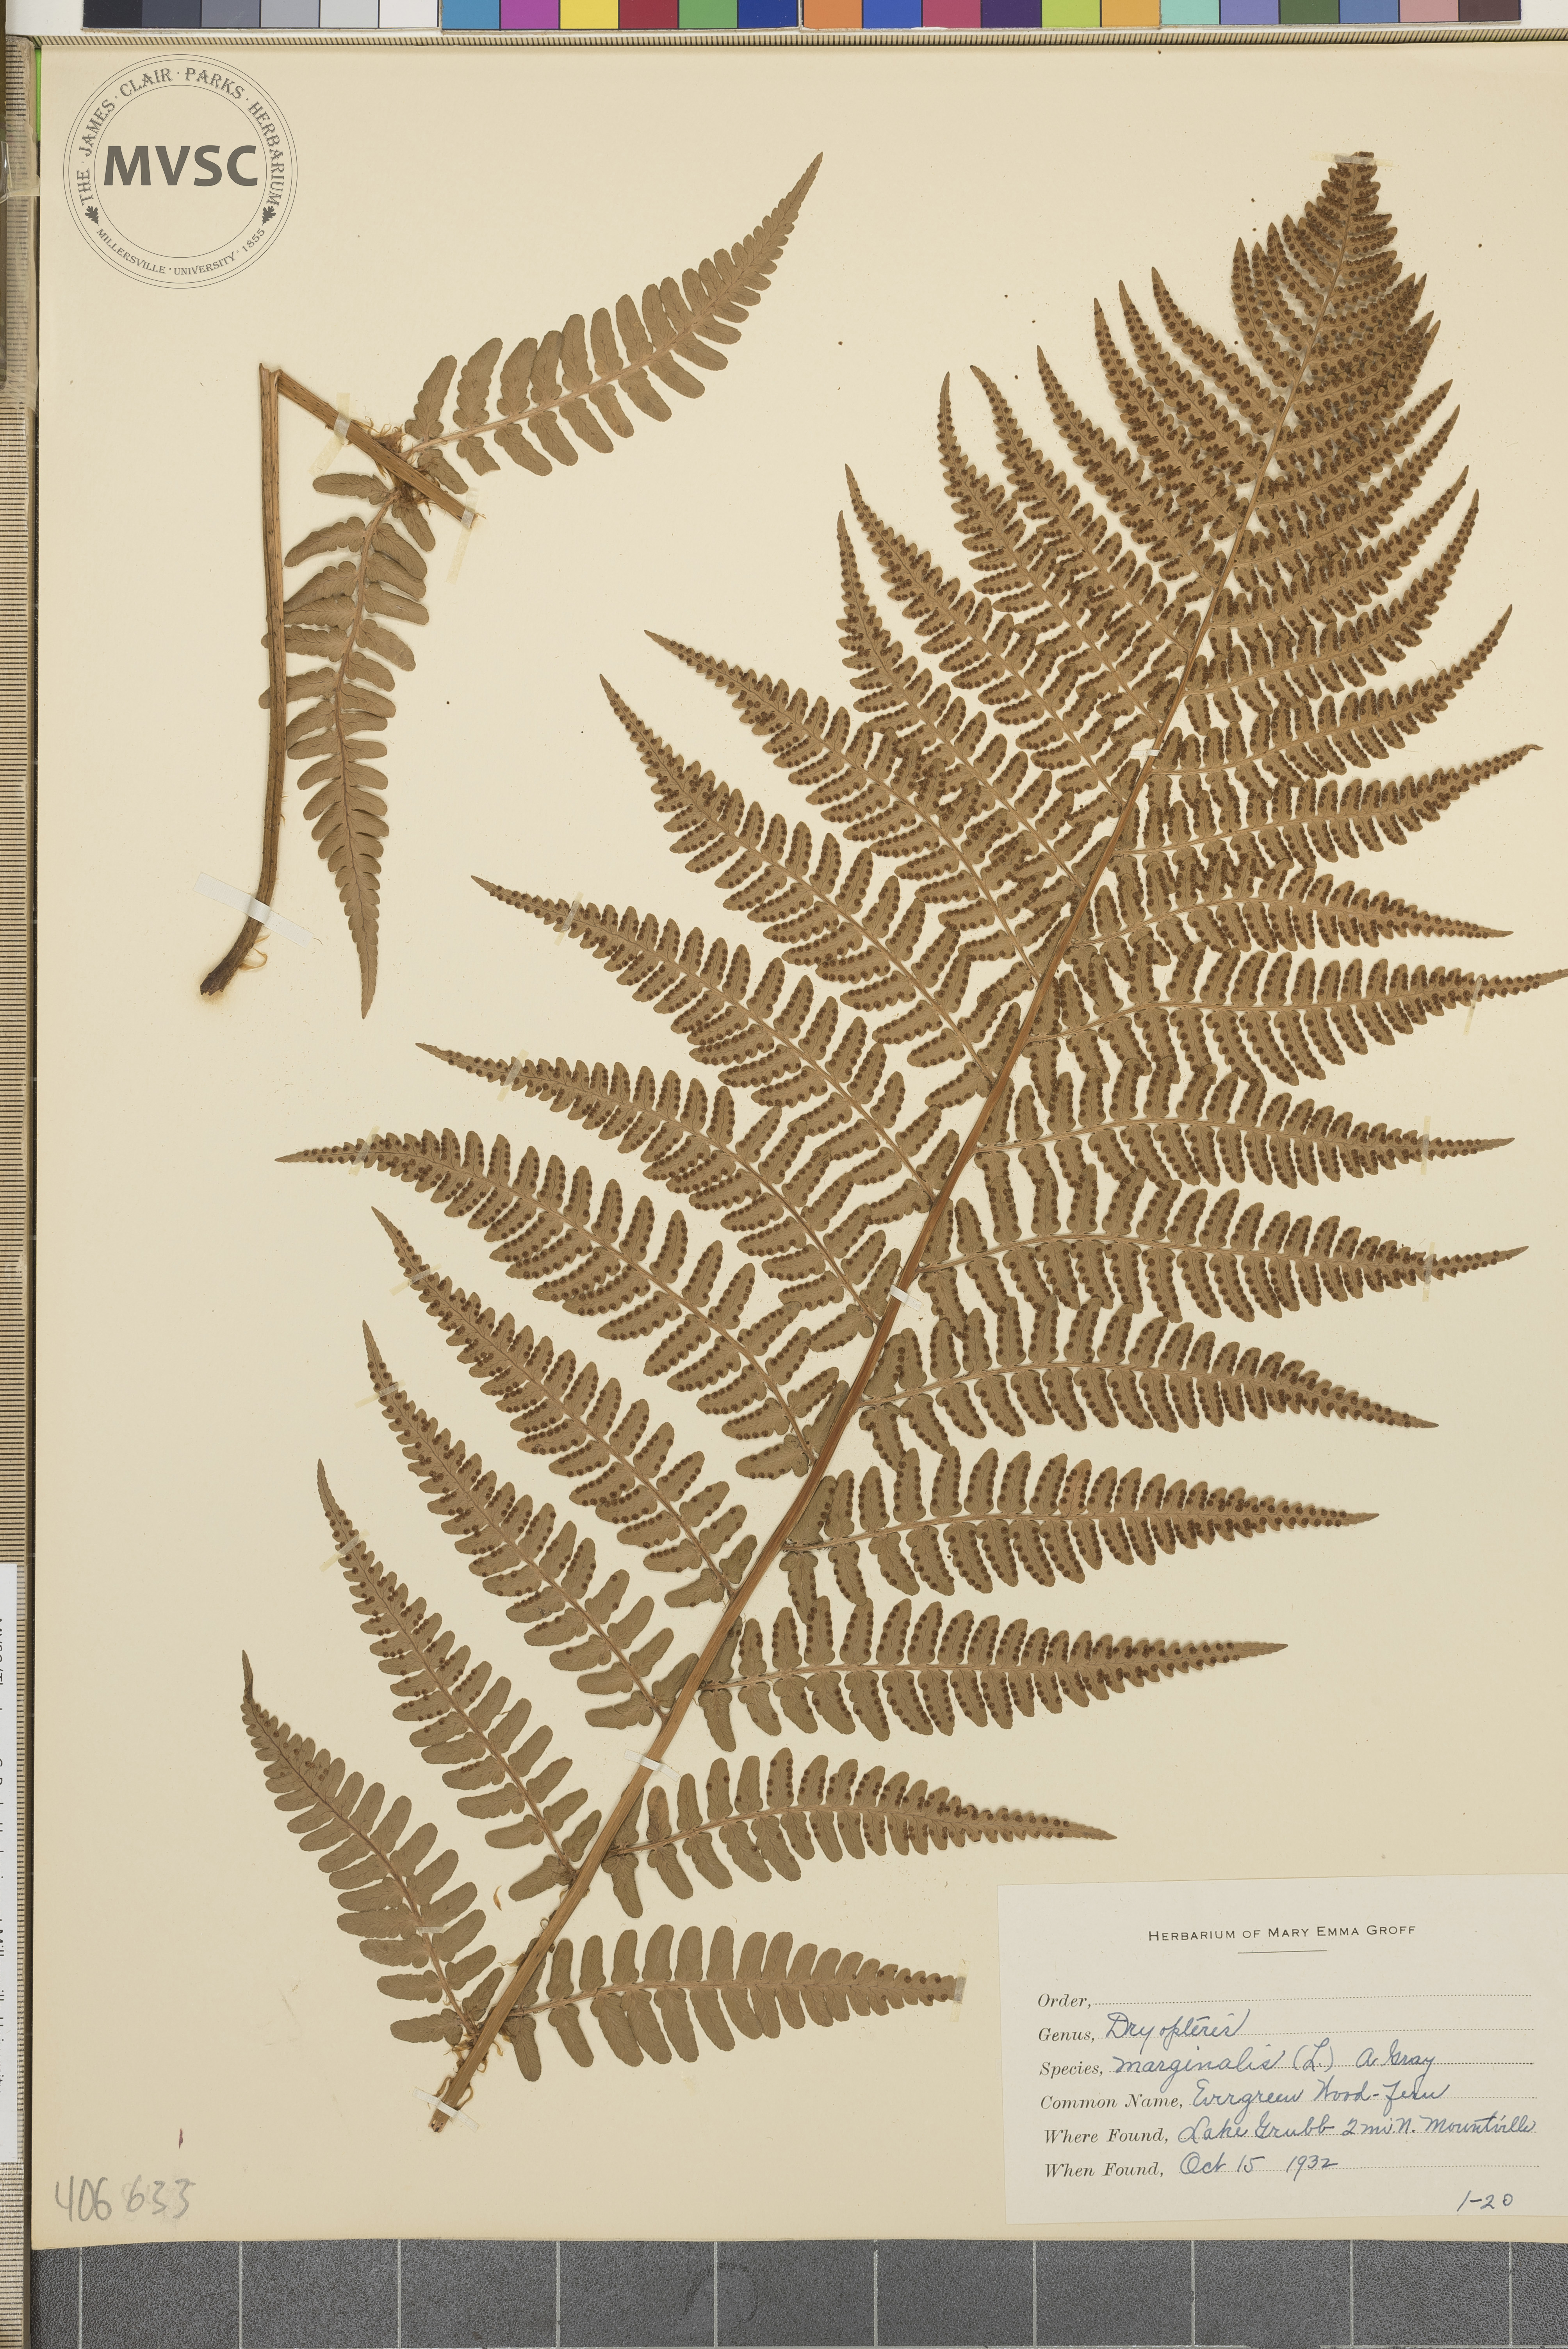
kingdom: Plantae
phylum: Tracheophyta
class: Polypodiopsida
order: Polypodiales
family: Dryopteridaceae
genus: Dryopteris
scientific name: Dryopteris marginalis
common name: Marginal wood fern
